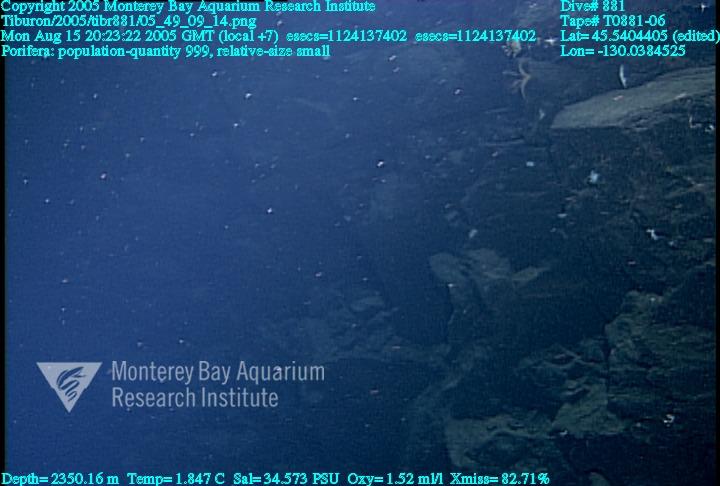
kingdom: Animalia
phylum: Porifera
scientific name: Porifera
